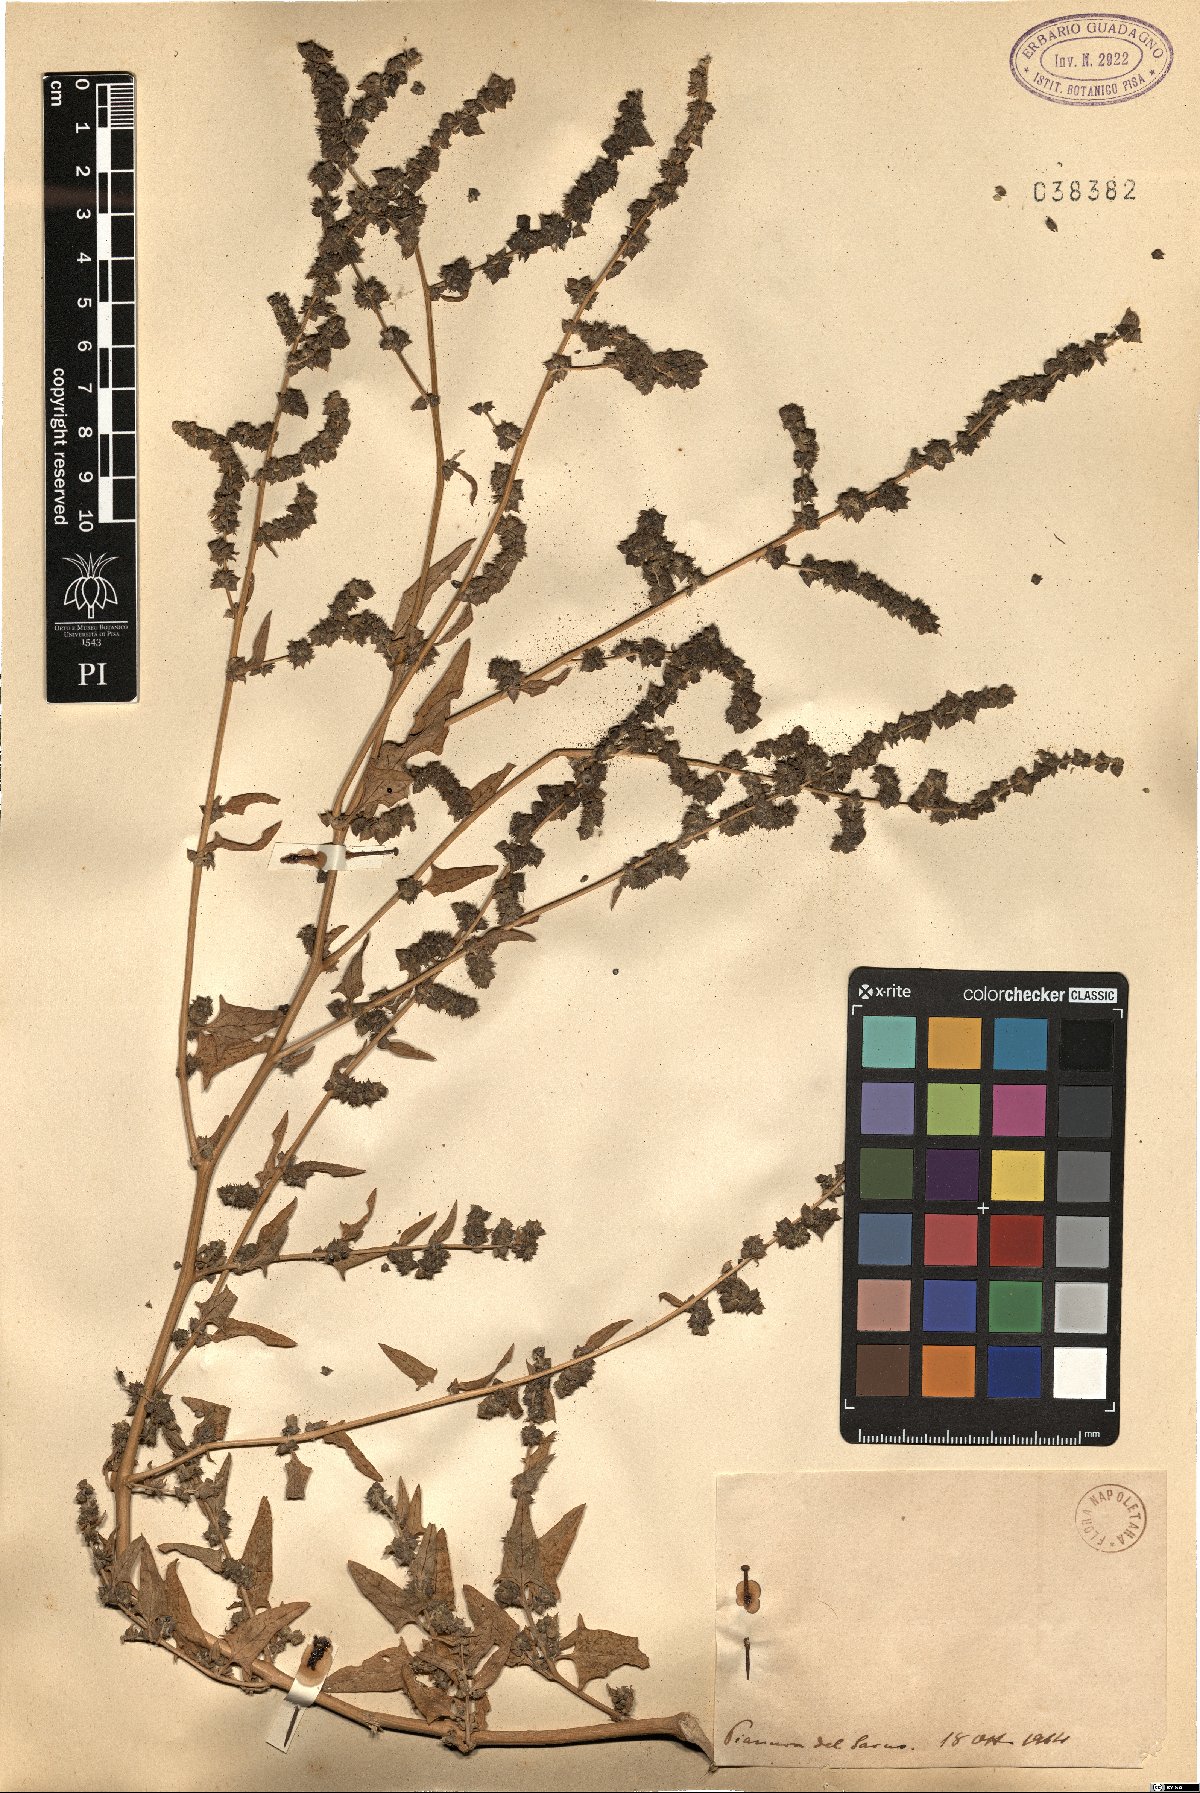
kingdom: Plantae
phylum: Tracheophyta
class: Magnoliopsida
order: Caryophyllales
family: Amaranthaceae
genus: Atriplex
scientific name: Atriplex
